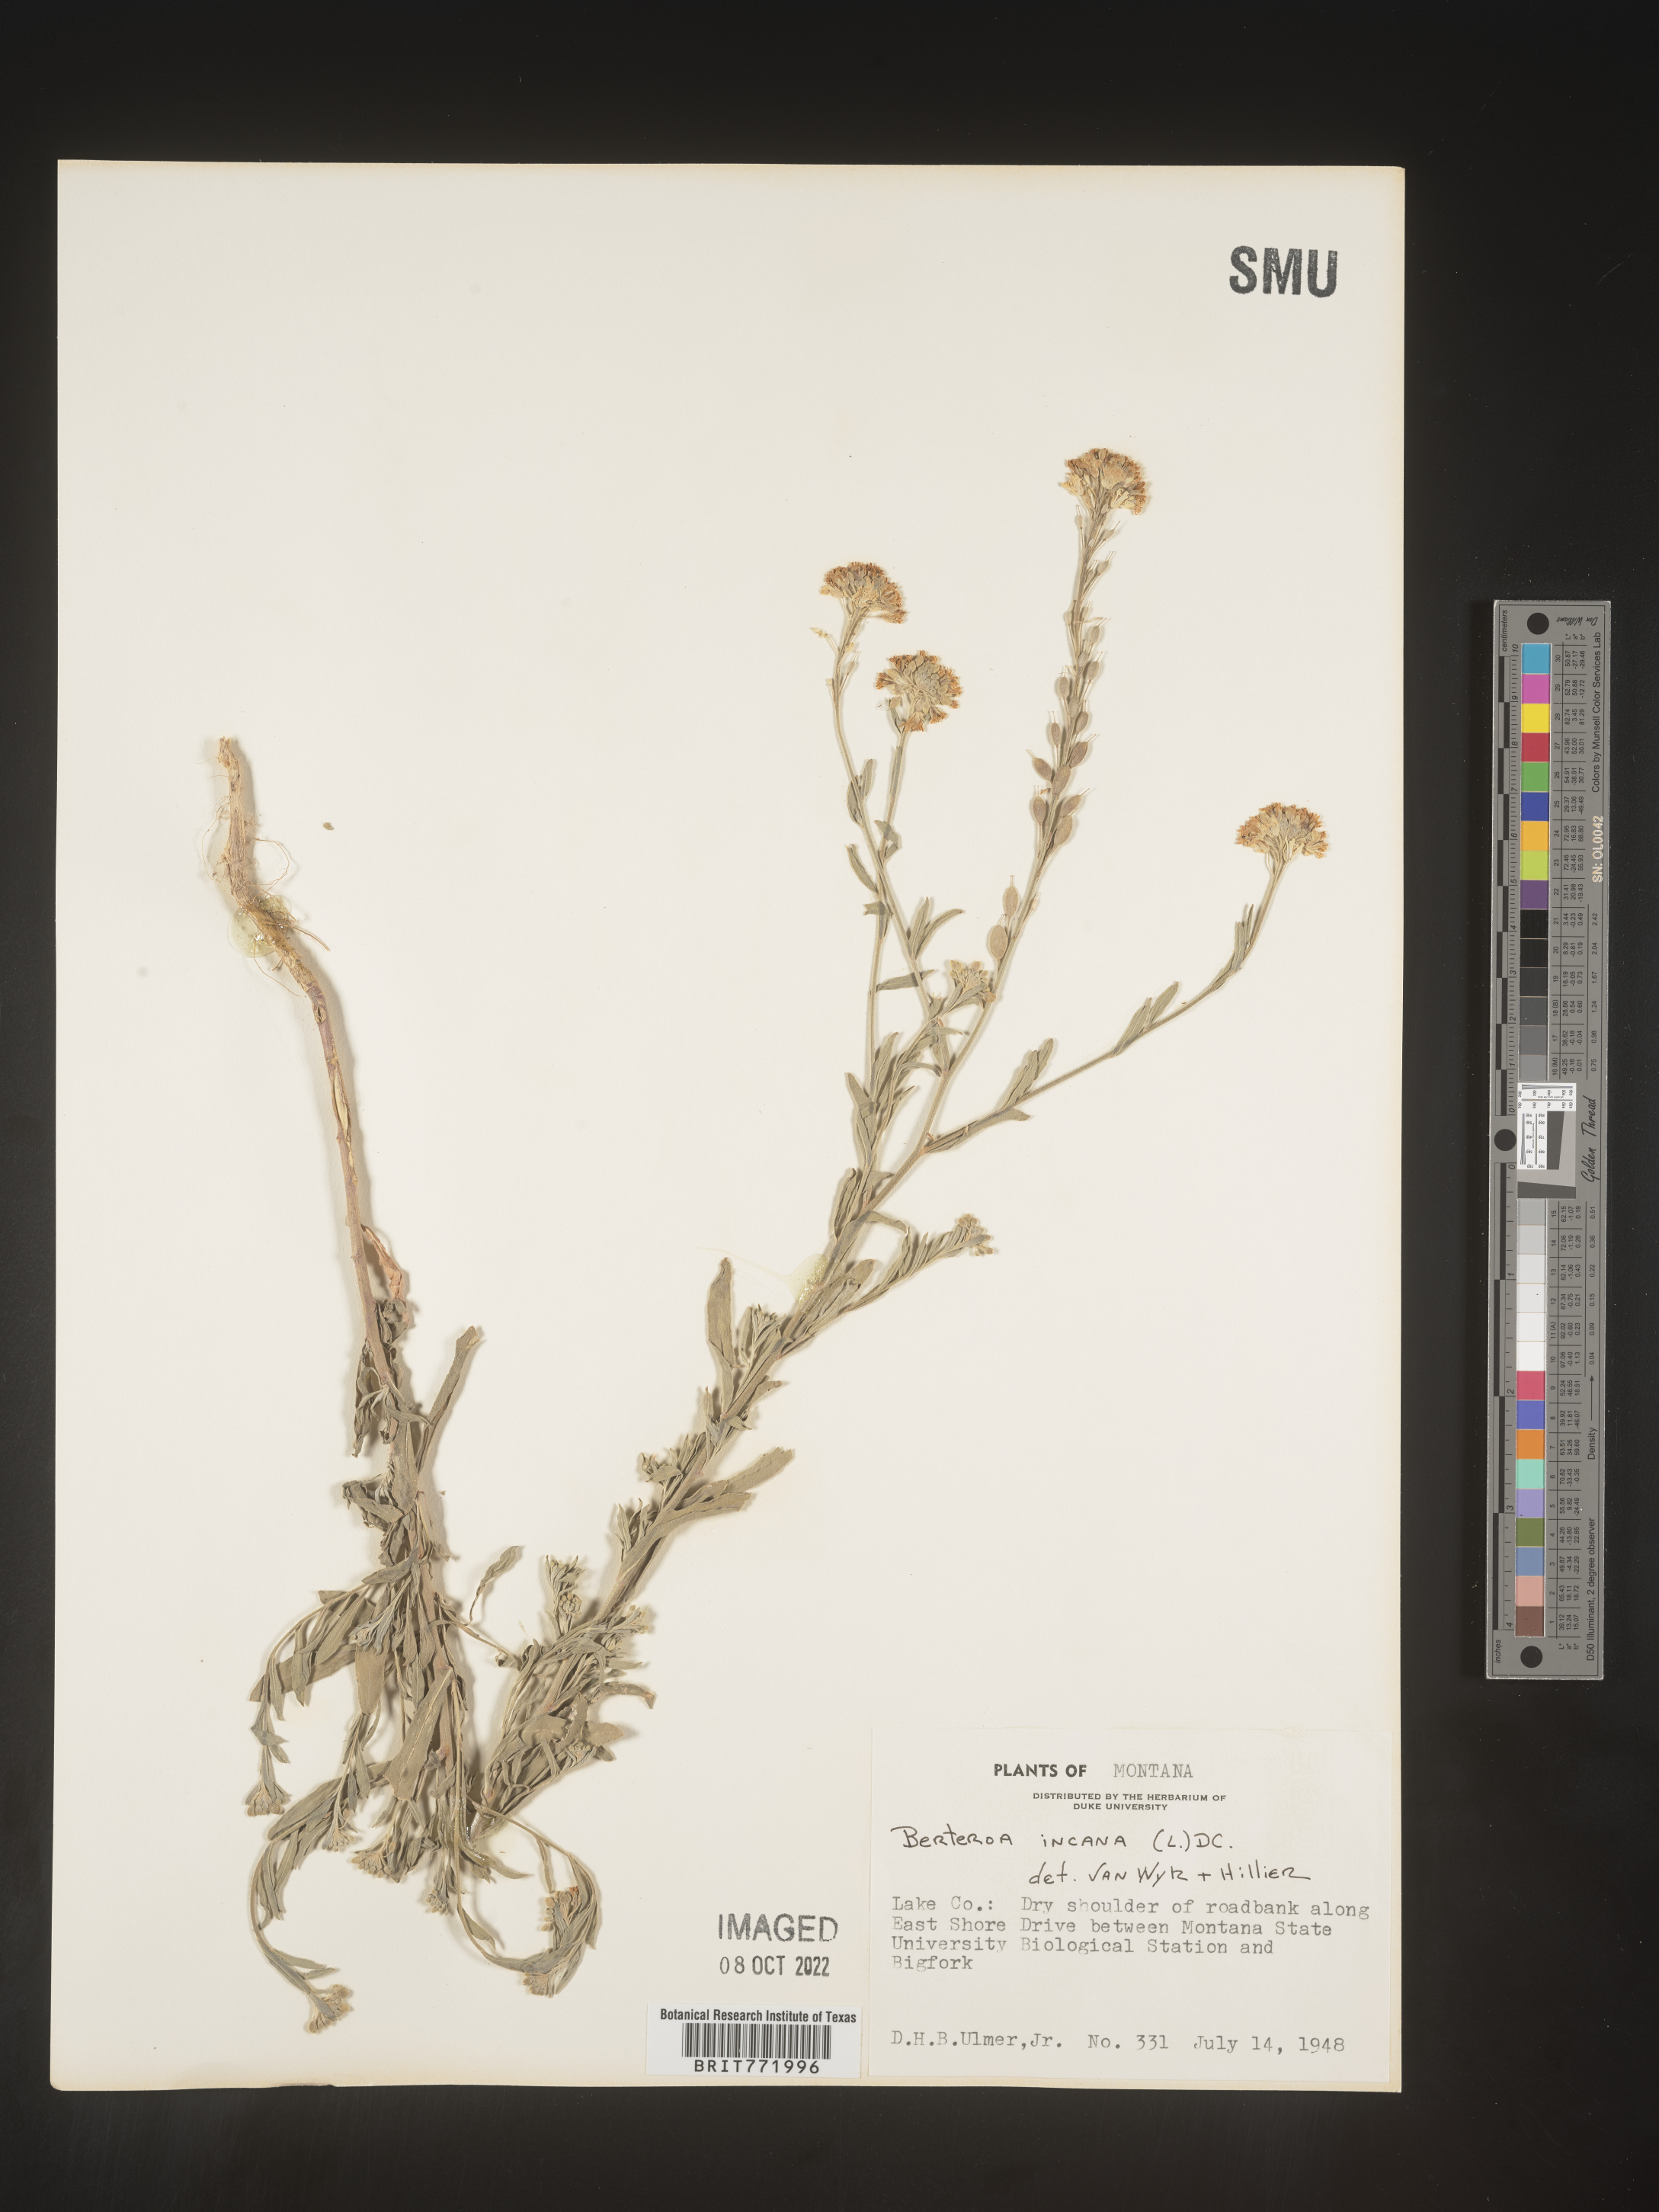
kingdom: Plantae
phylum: Tracheophyta
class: Magnoliopsida
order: Brassicales
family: Brassicaceae
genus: Berteroa
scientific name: Berteroa incana
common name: Hoary alison
